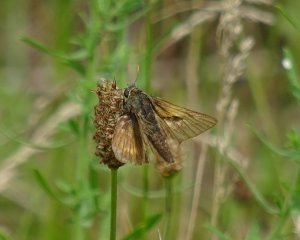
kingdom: Animalia
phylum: Arthropoda
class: Insecta
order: Lepidoptera
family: Hesperiidae
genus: Polites
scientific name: Polites themistocles
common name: Tawny-edged Skipper
